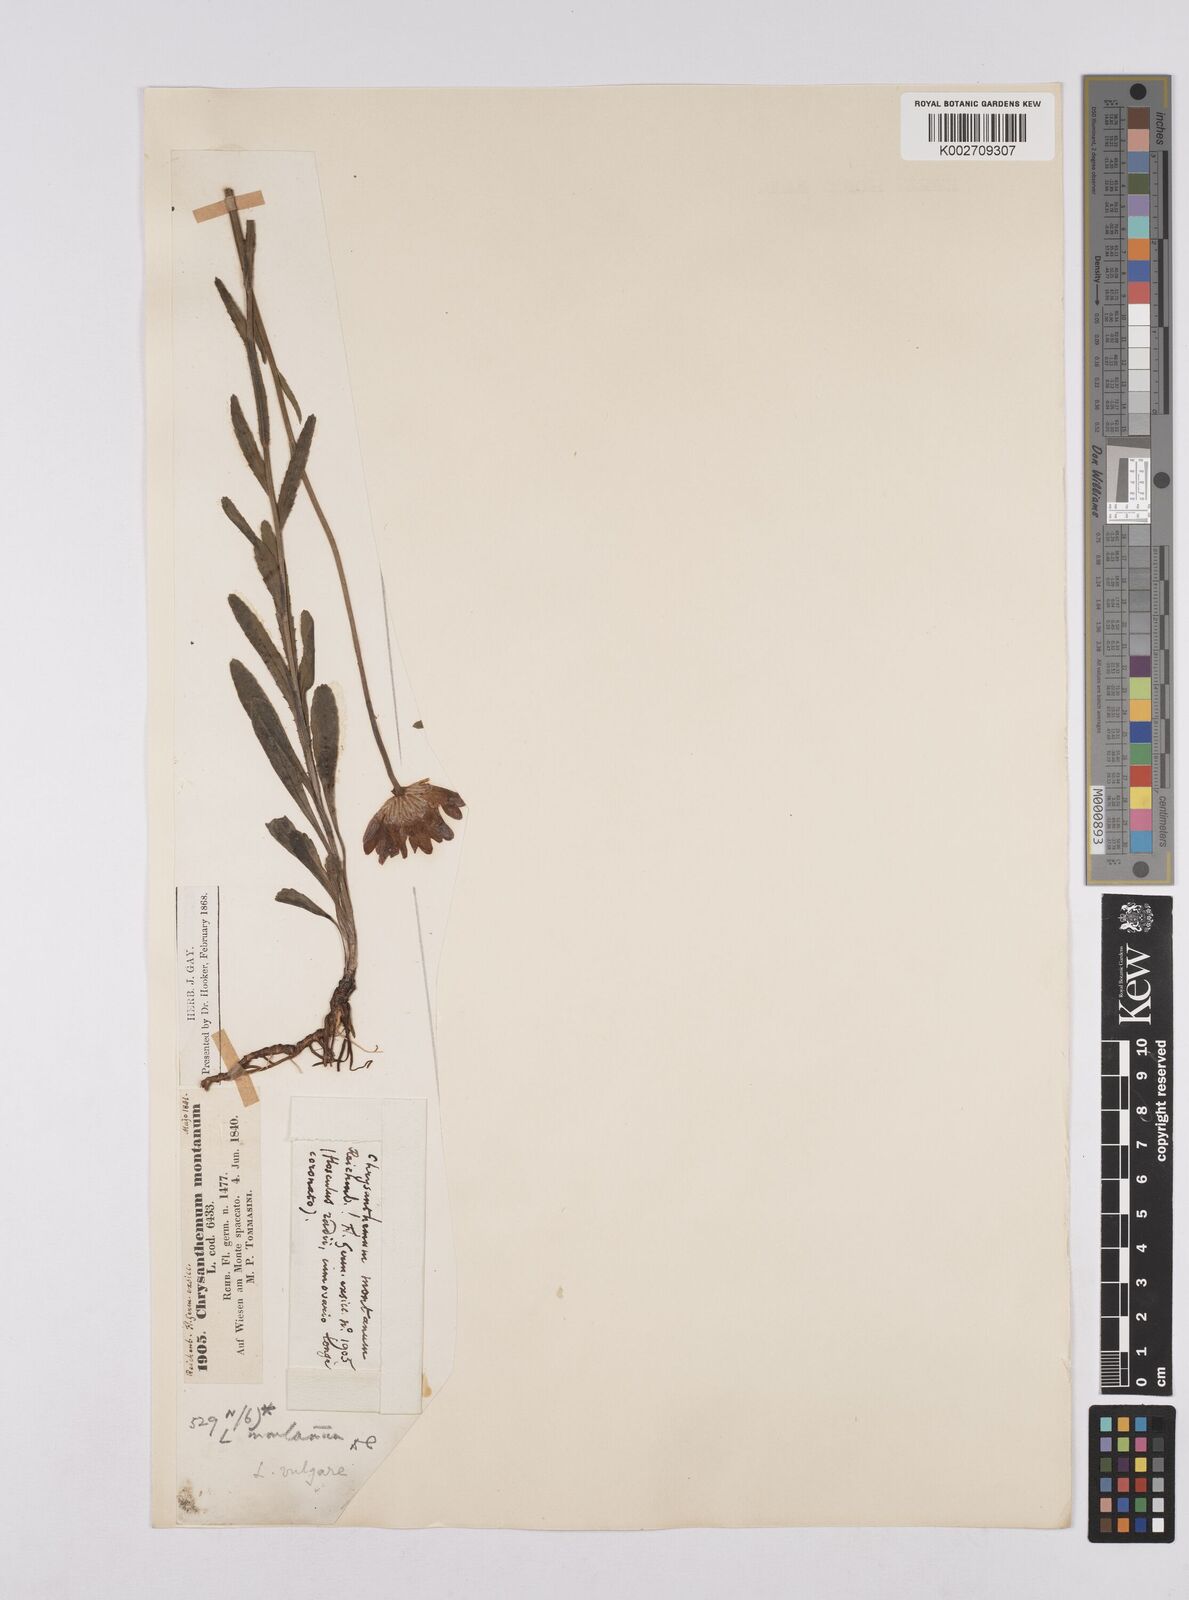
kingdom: Plantae
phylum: Tracheophyta
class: Magnoliopsida
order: Asterales
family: Asteraceae
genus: Leucanthemum
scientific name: Leucanthemum chloroticum
